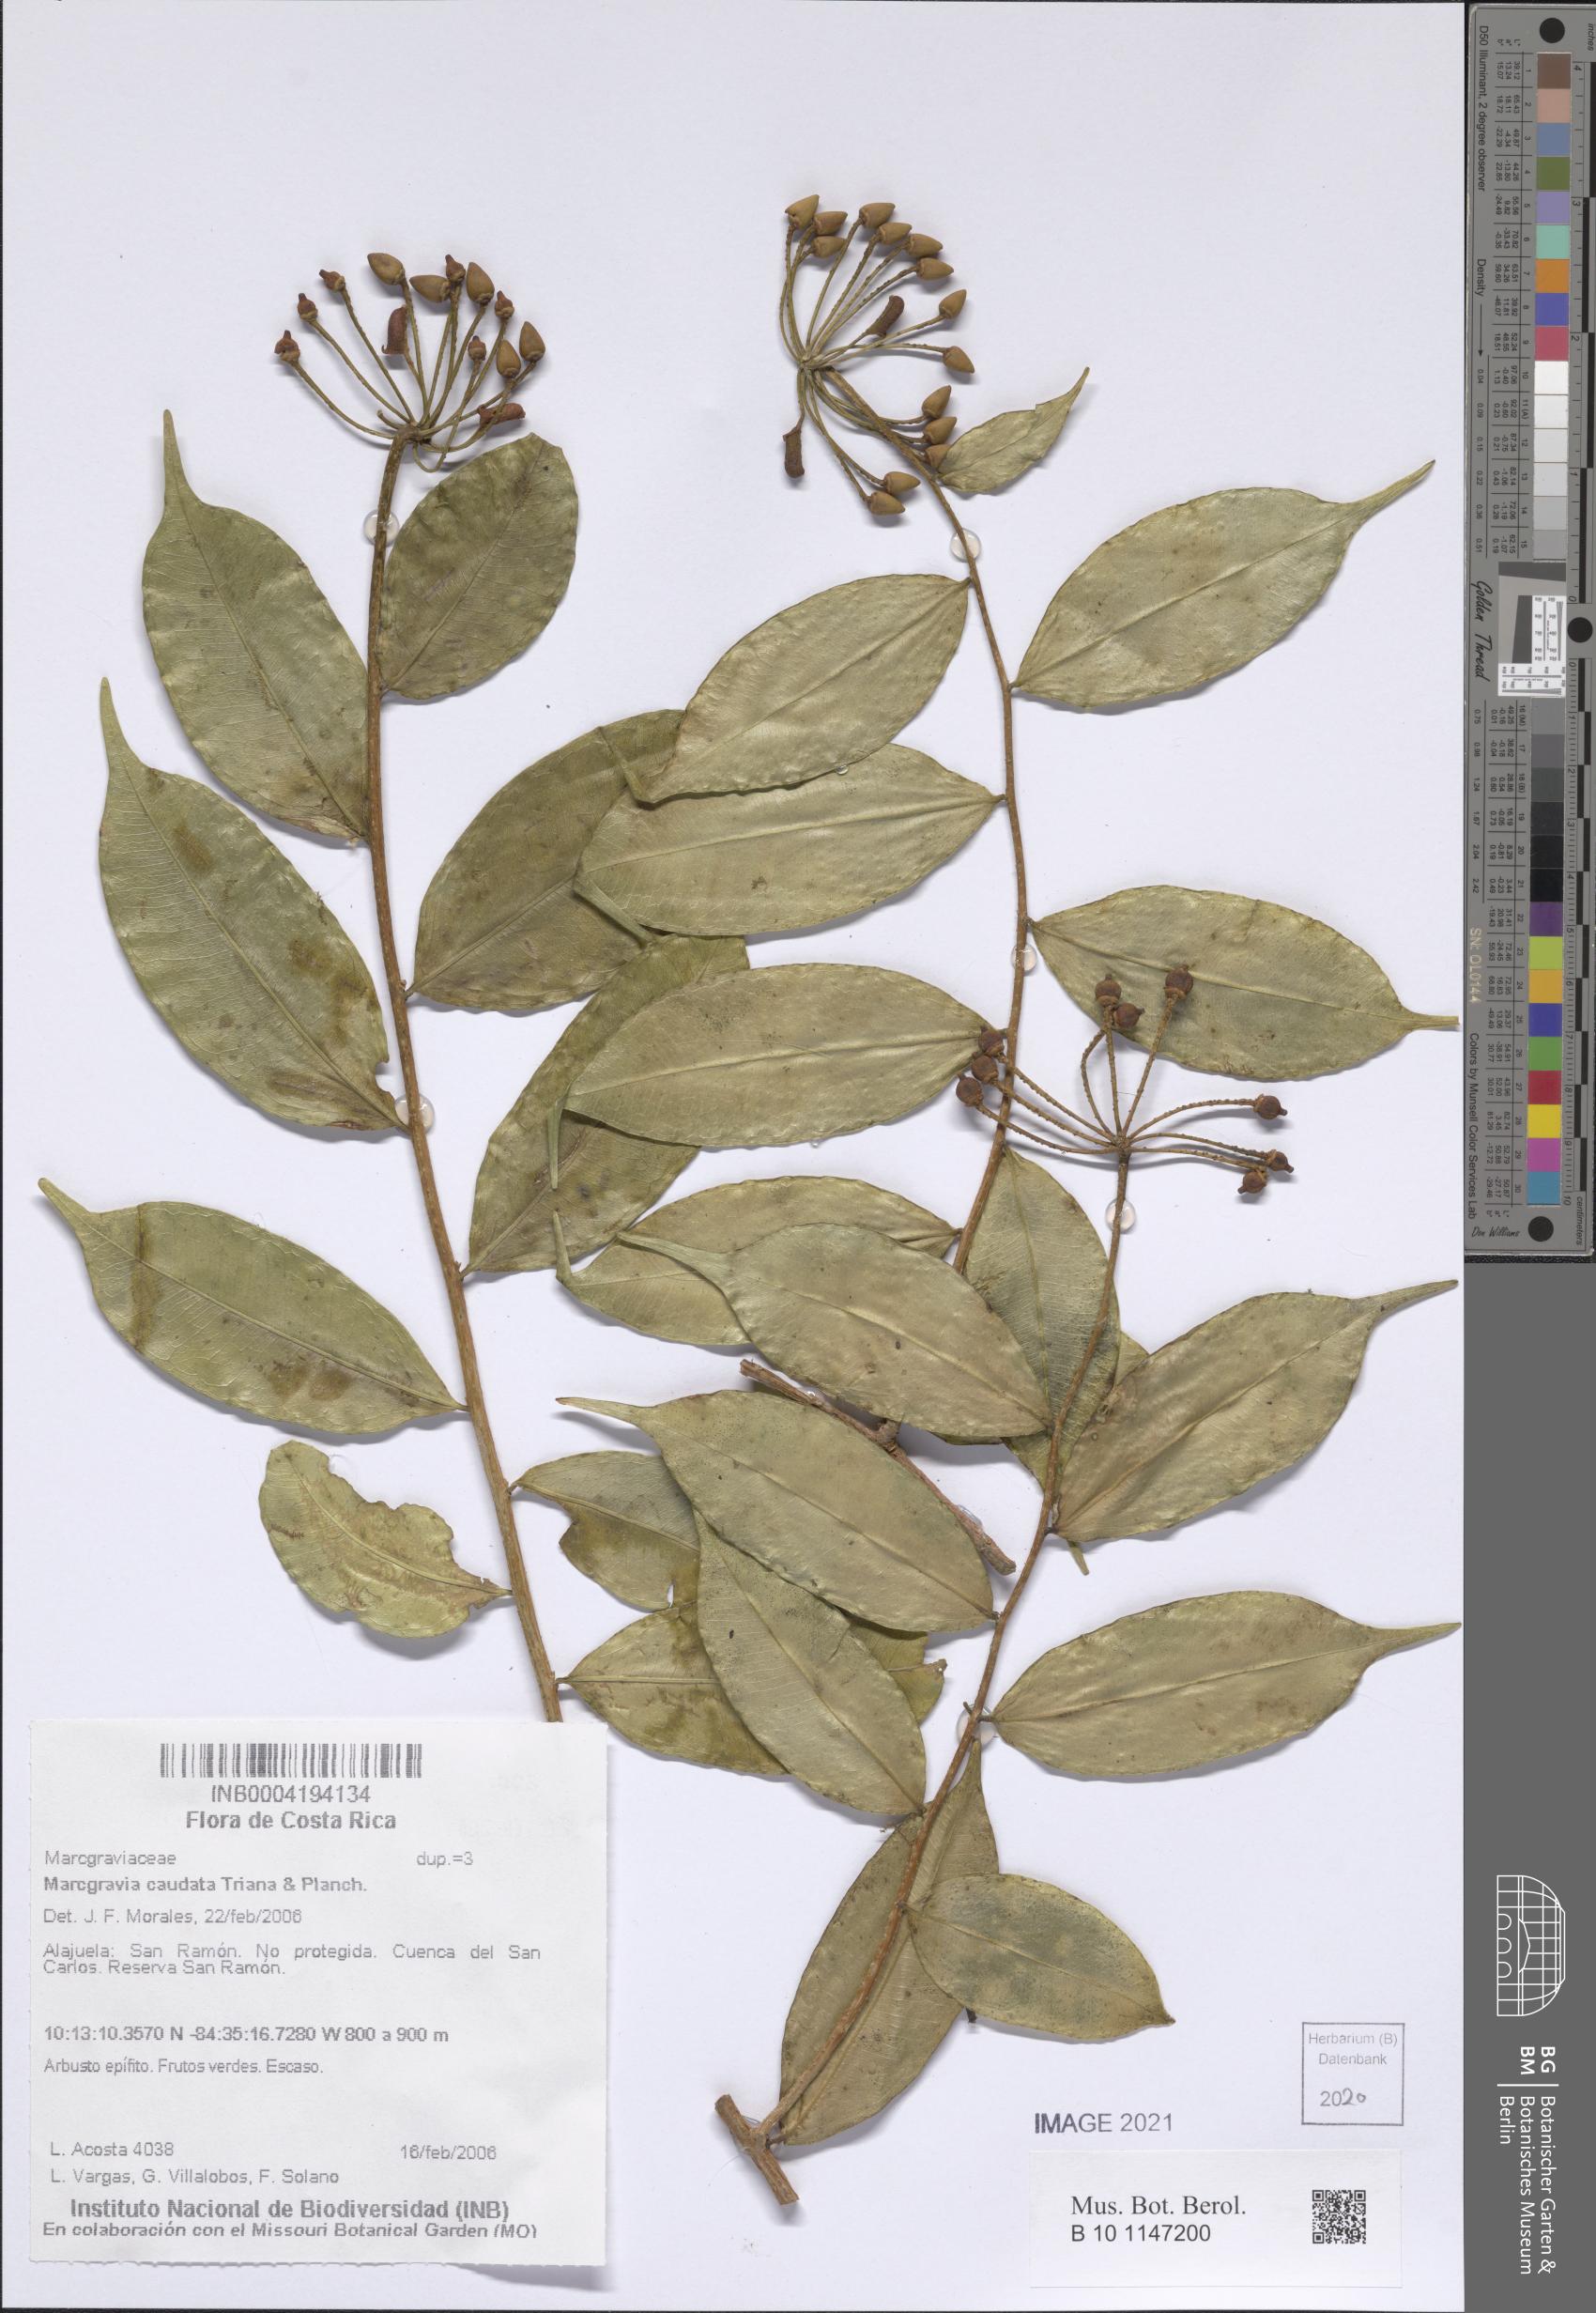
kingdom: Plantae
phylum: Tracheophyta
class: Magnoliopsida
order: Ericales
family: Marcgraviaceae
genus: Marcgravia
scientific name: Marcgravia caudata
